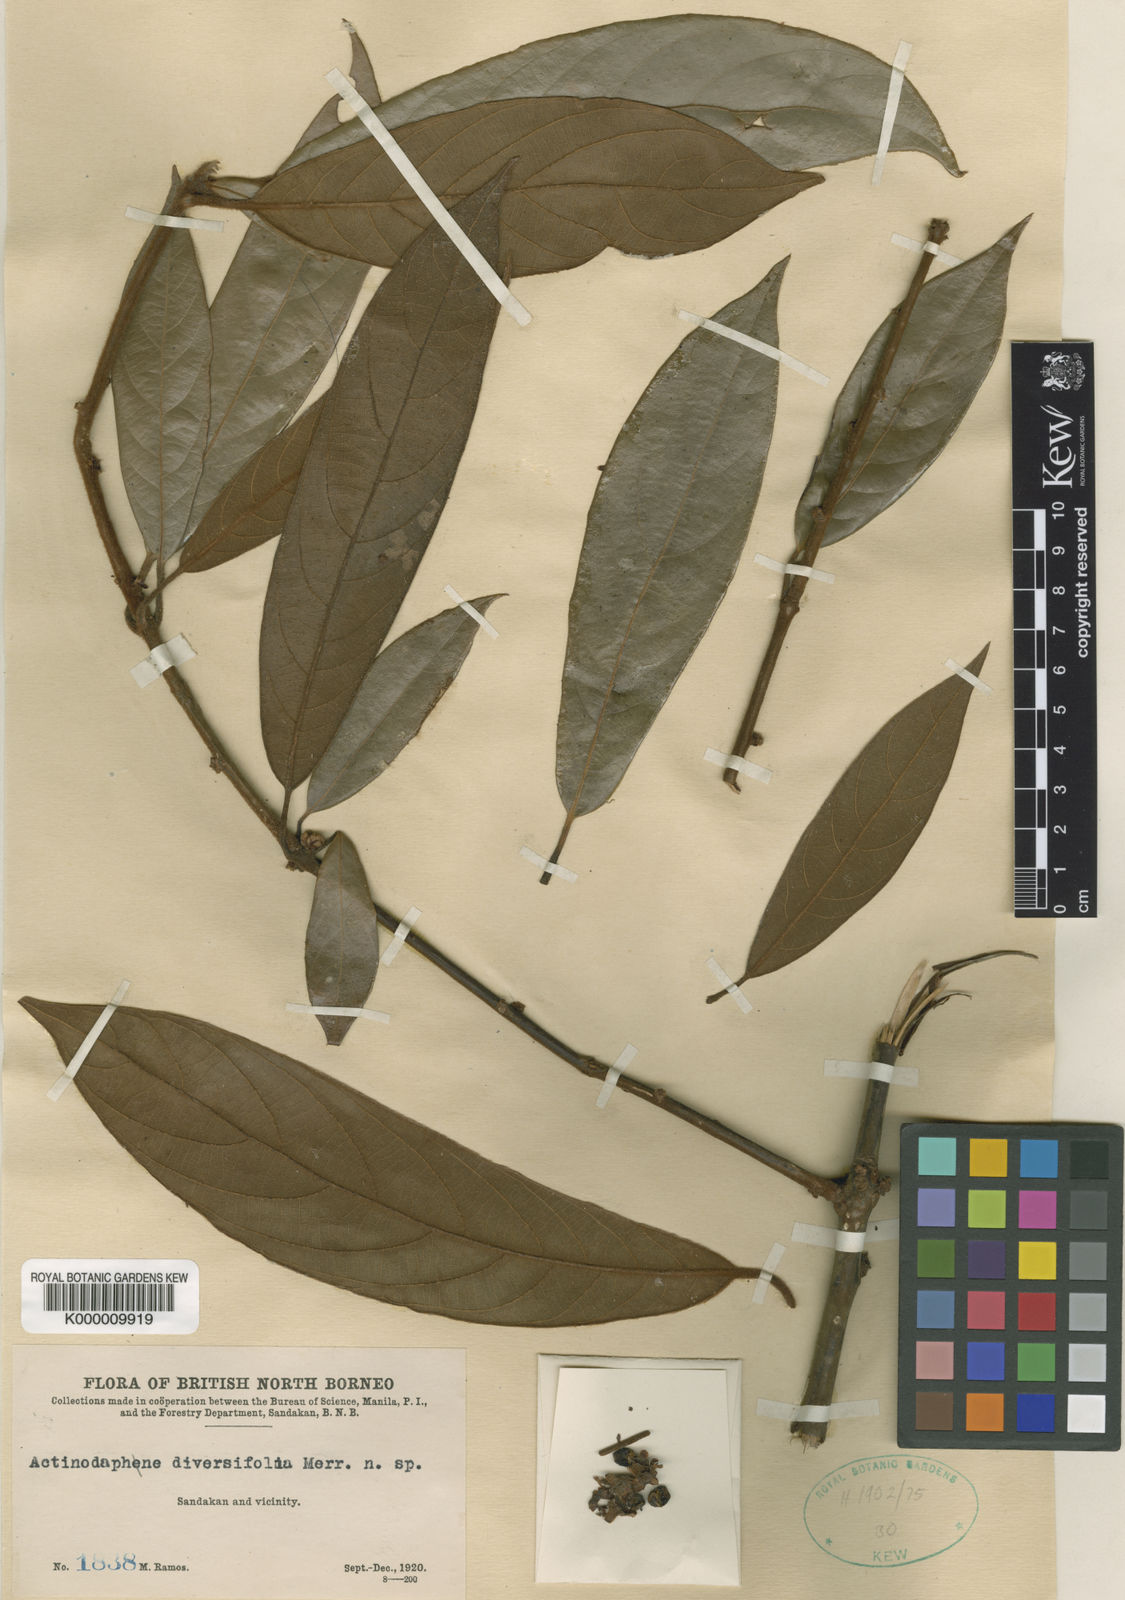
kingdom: Plantae
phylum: Tracheophyta
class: Magnoliopsida
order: Laurales
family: Lauraceae
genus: Actinodaphne
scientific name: Actinodaphne diversifolia
